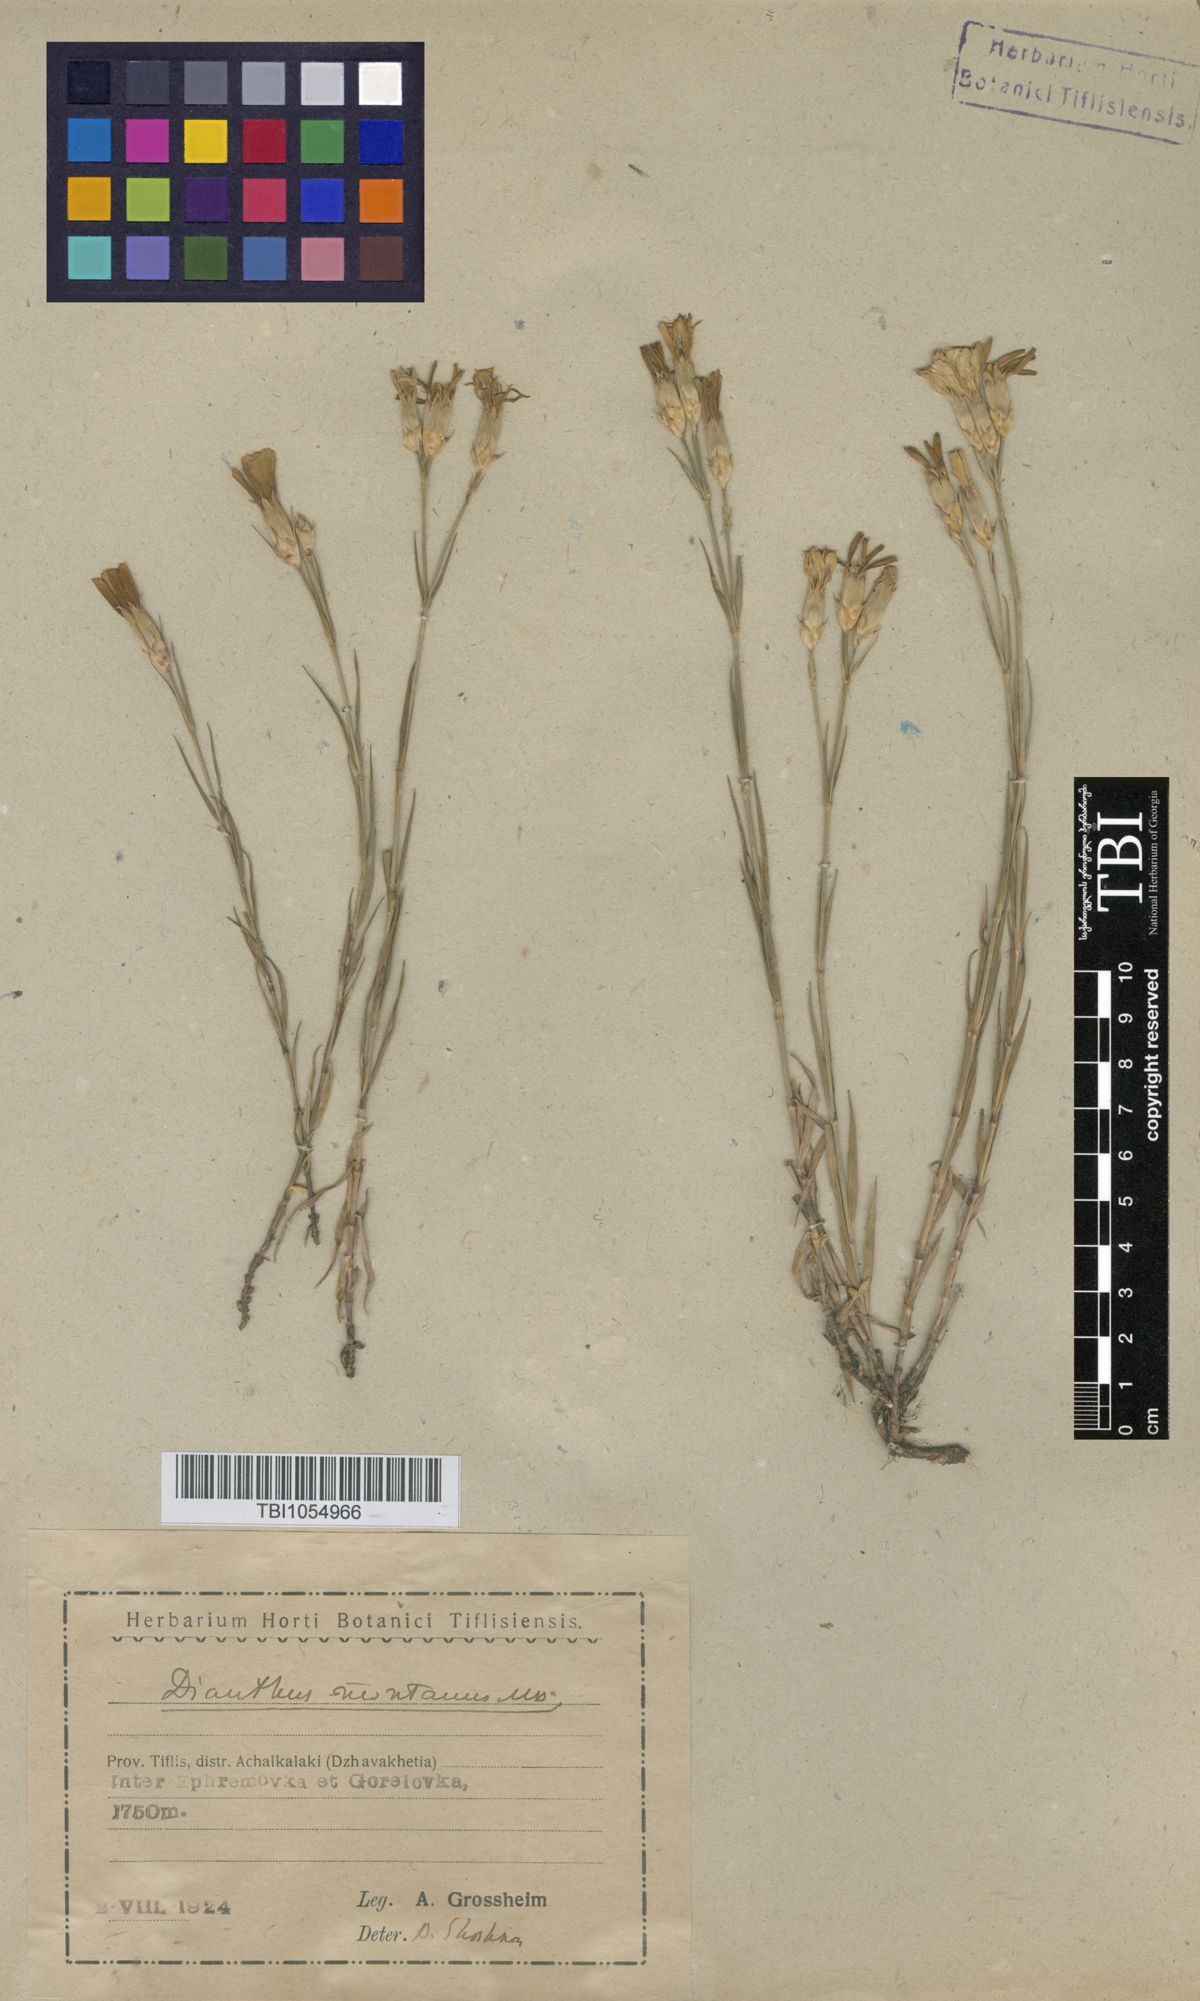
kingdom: Plantae
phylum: Tracheophyta
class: Magnoliopsida
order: Caryophyllales
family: Caryophyllaceae
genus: Dianthus
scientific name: Dianthus caucaseus
